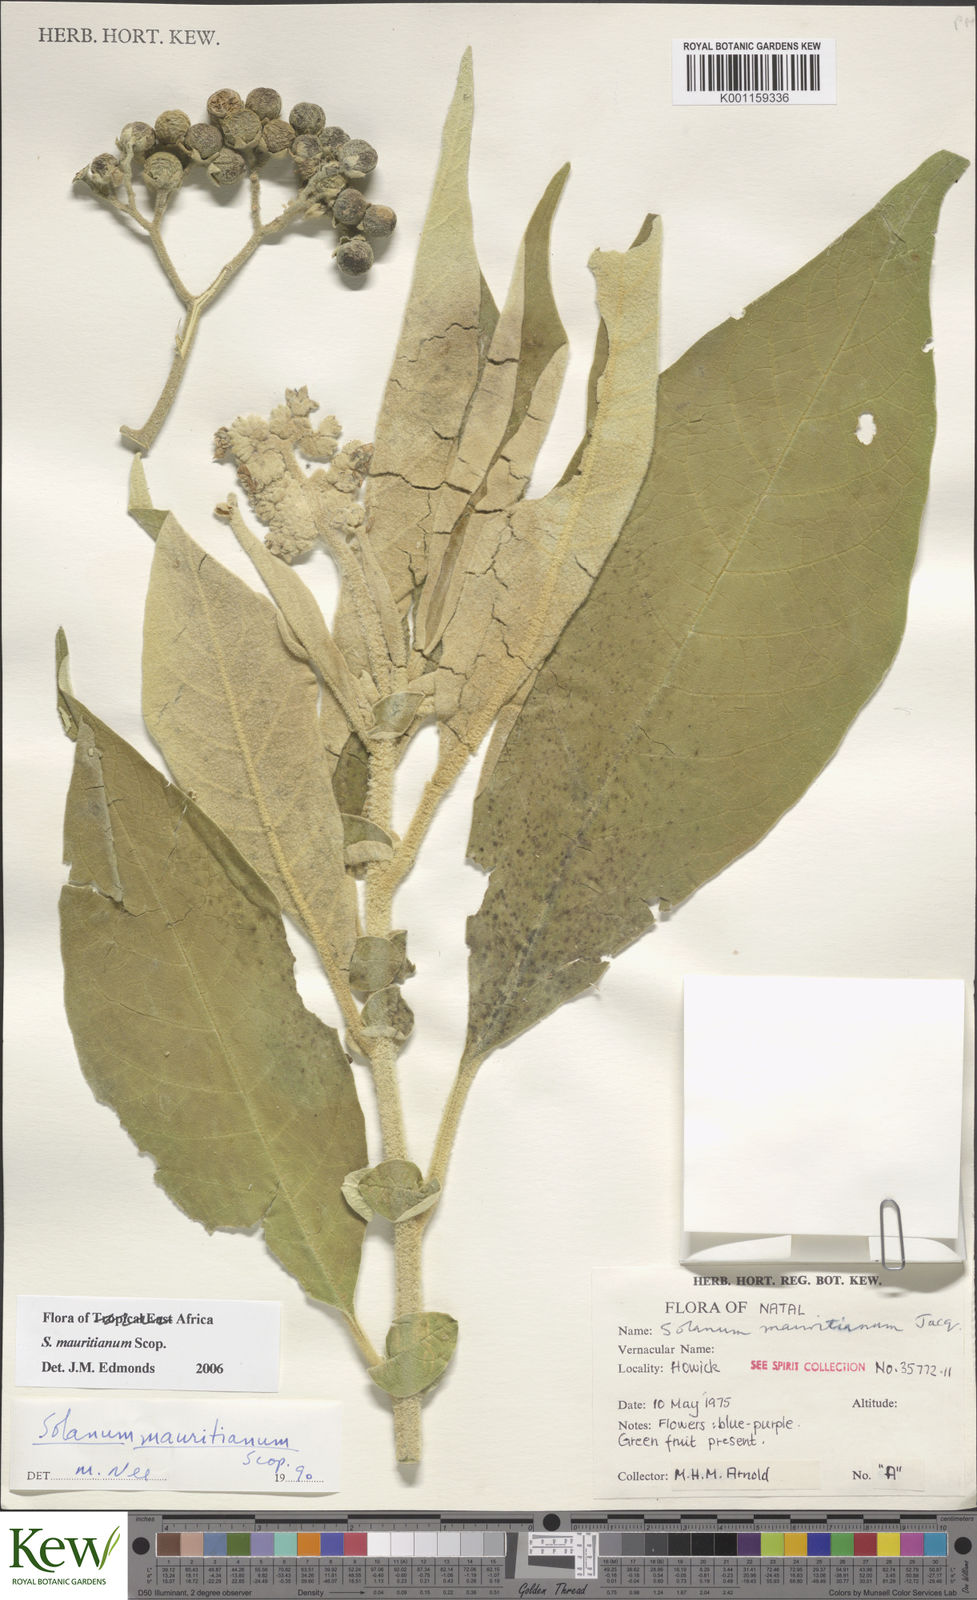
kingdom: Plantae
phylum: Tracheophyta
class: Magnoliopsida
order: Solanales
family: Solanaceae
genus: Solanum
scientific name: Solanum mauritianum
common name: Earleaf nightshade
